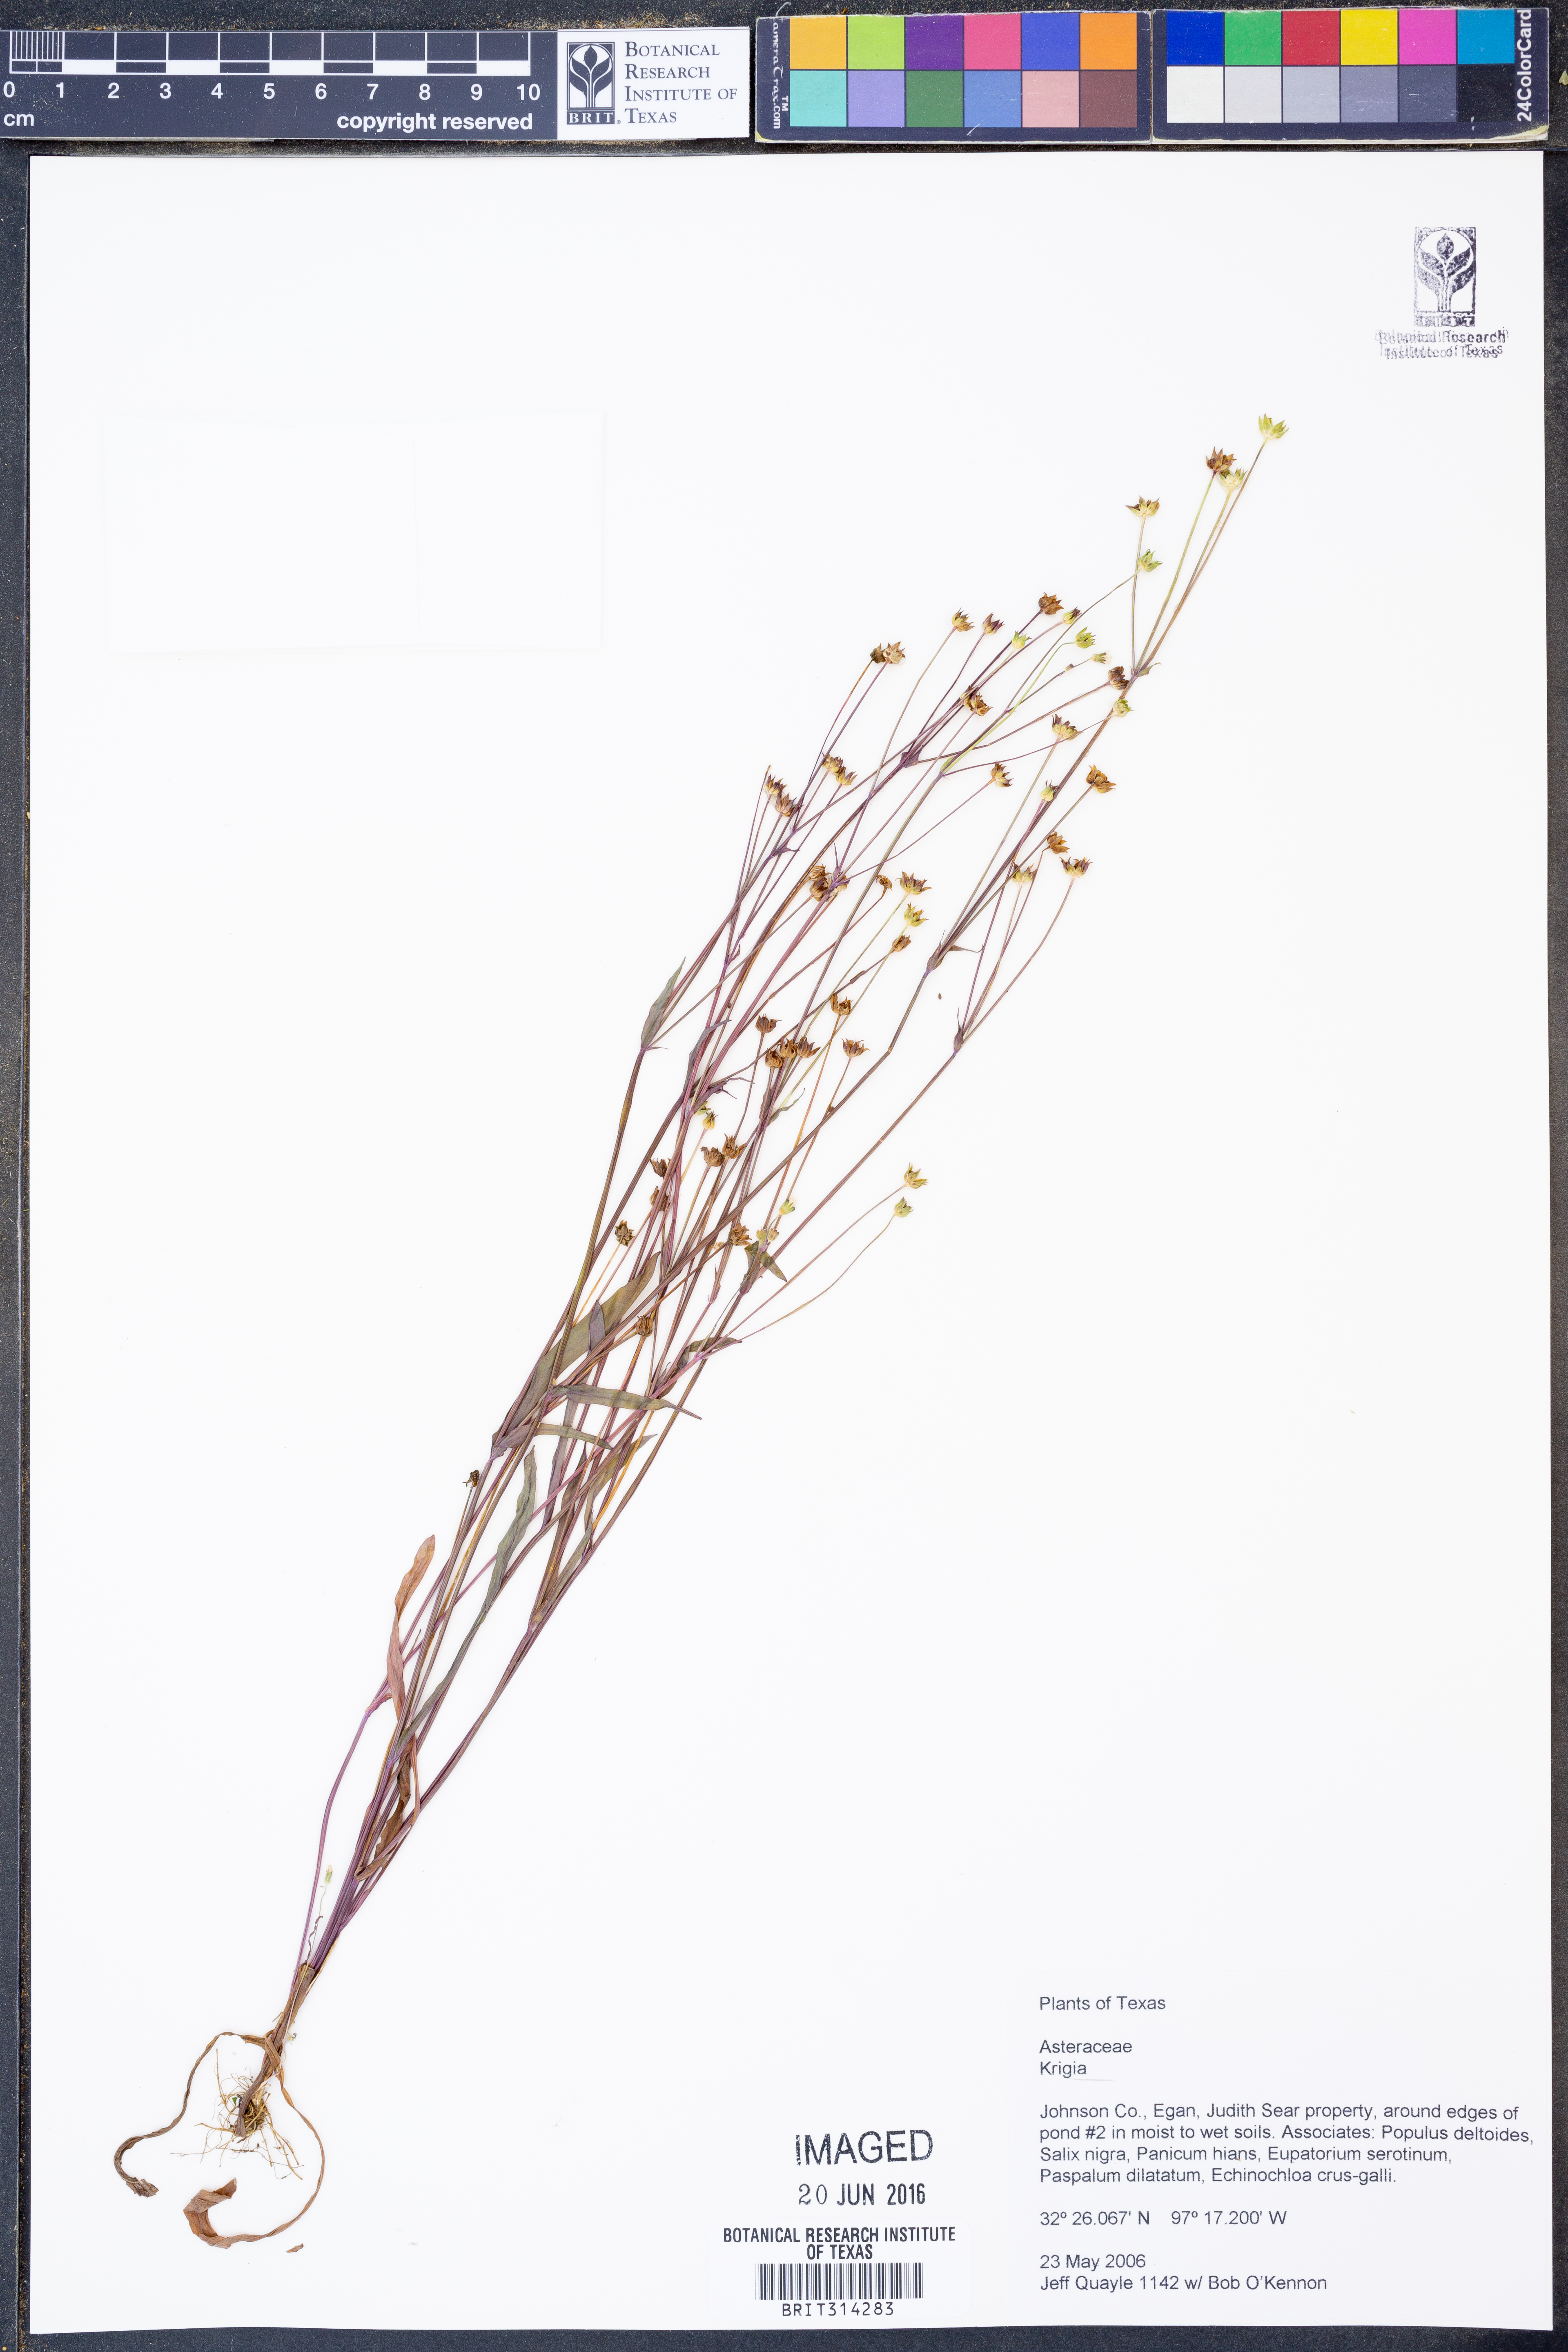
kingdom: Plantae
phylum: Tracheophyta
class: Magnoliopsida
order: Asterales
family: Asteraceae
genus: Krigia
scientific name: Krigia
